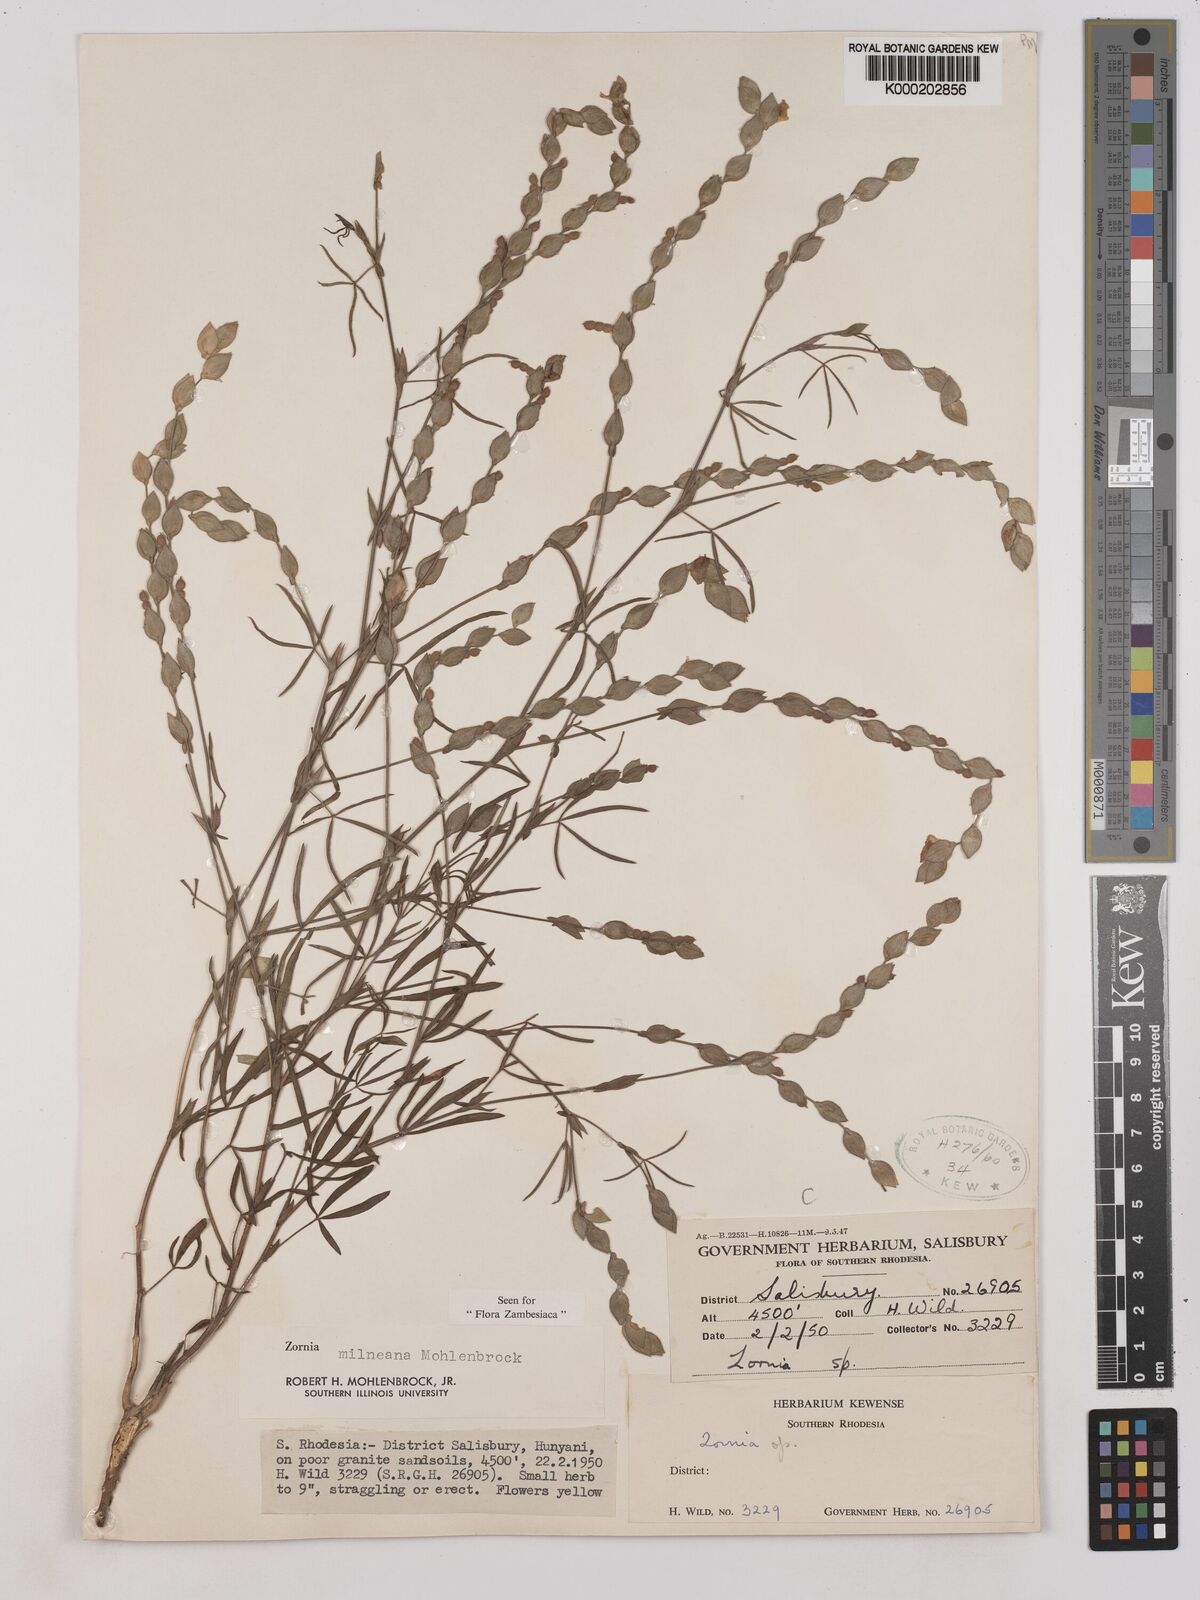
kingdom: Plantae
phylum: Tracheophyta
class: Magnoliopsida
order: Fabales
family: Fabaceae
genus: Zornia
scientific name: Zornia milneana
